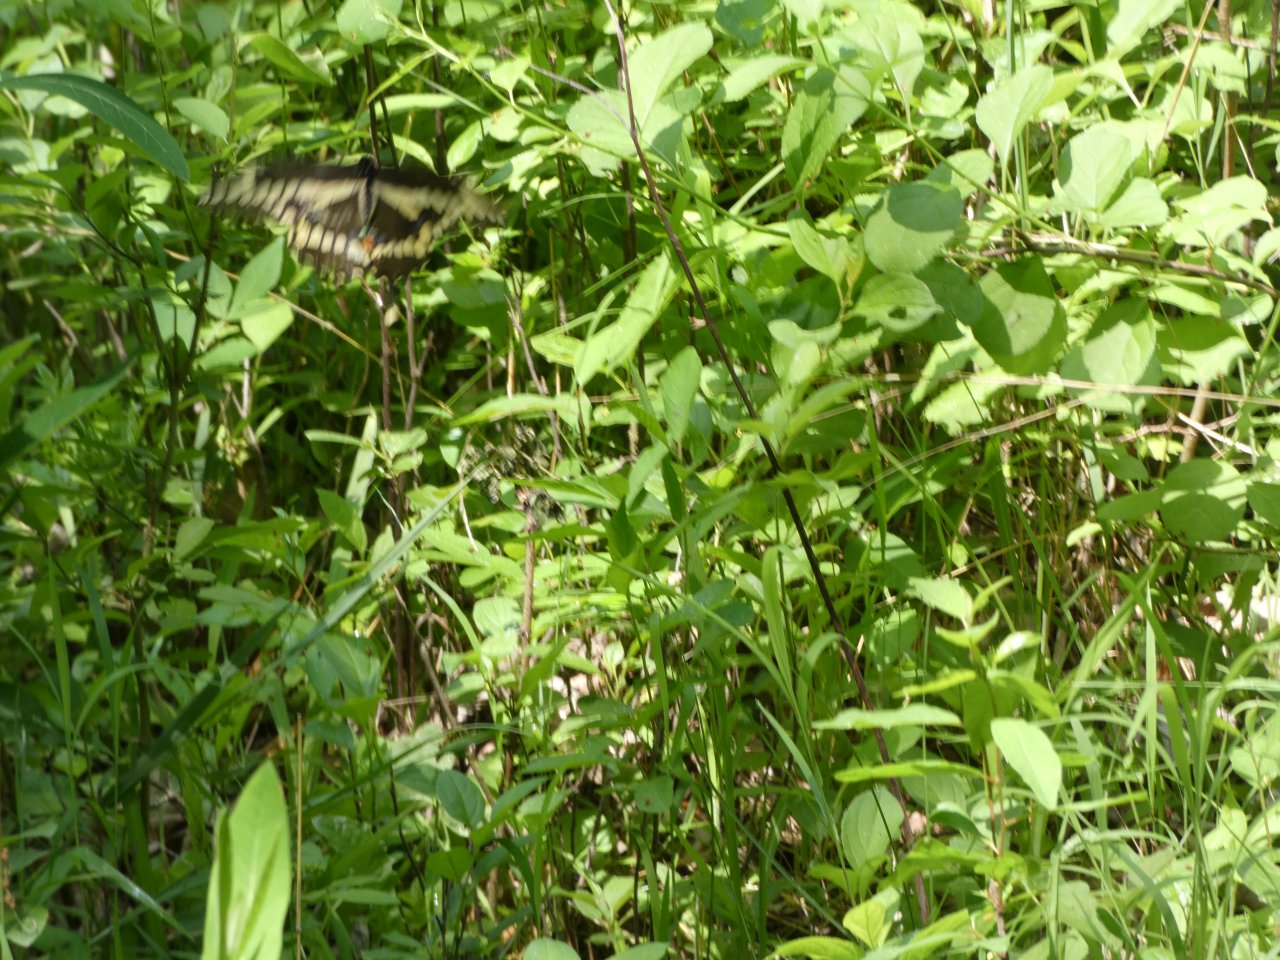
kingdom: Animalia
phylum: Arthropoda
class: Insecta
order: Lepidoptera
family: Papilionidae
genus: Papilio
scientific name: Papilio cresphontes
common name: Eastern Giant Swallowtail
